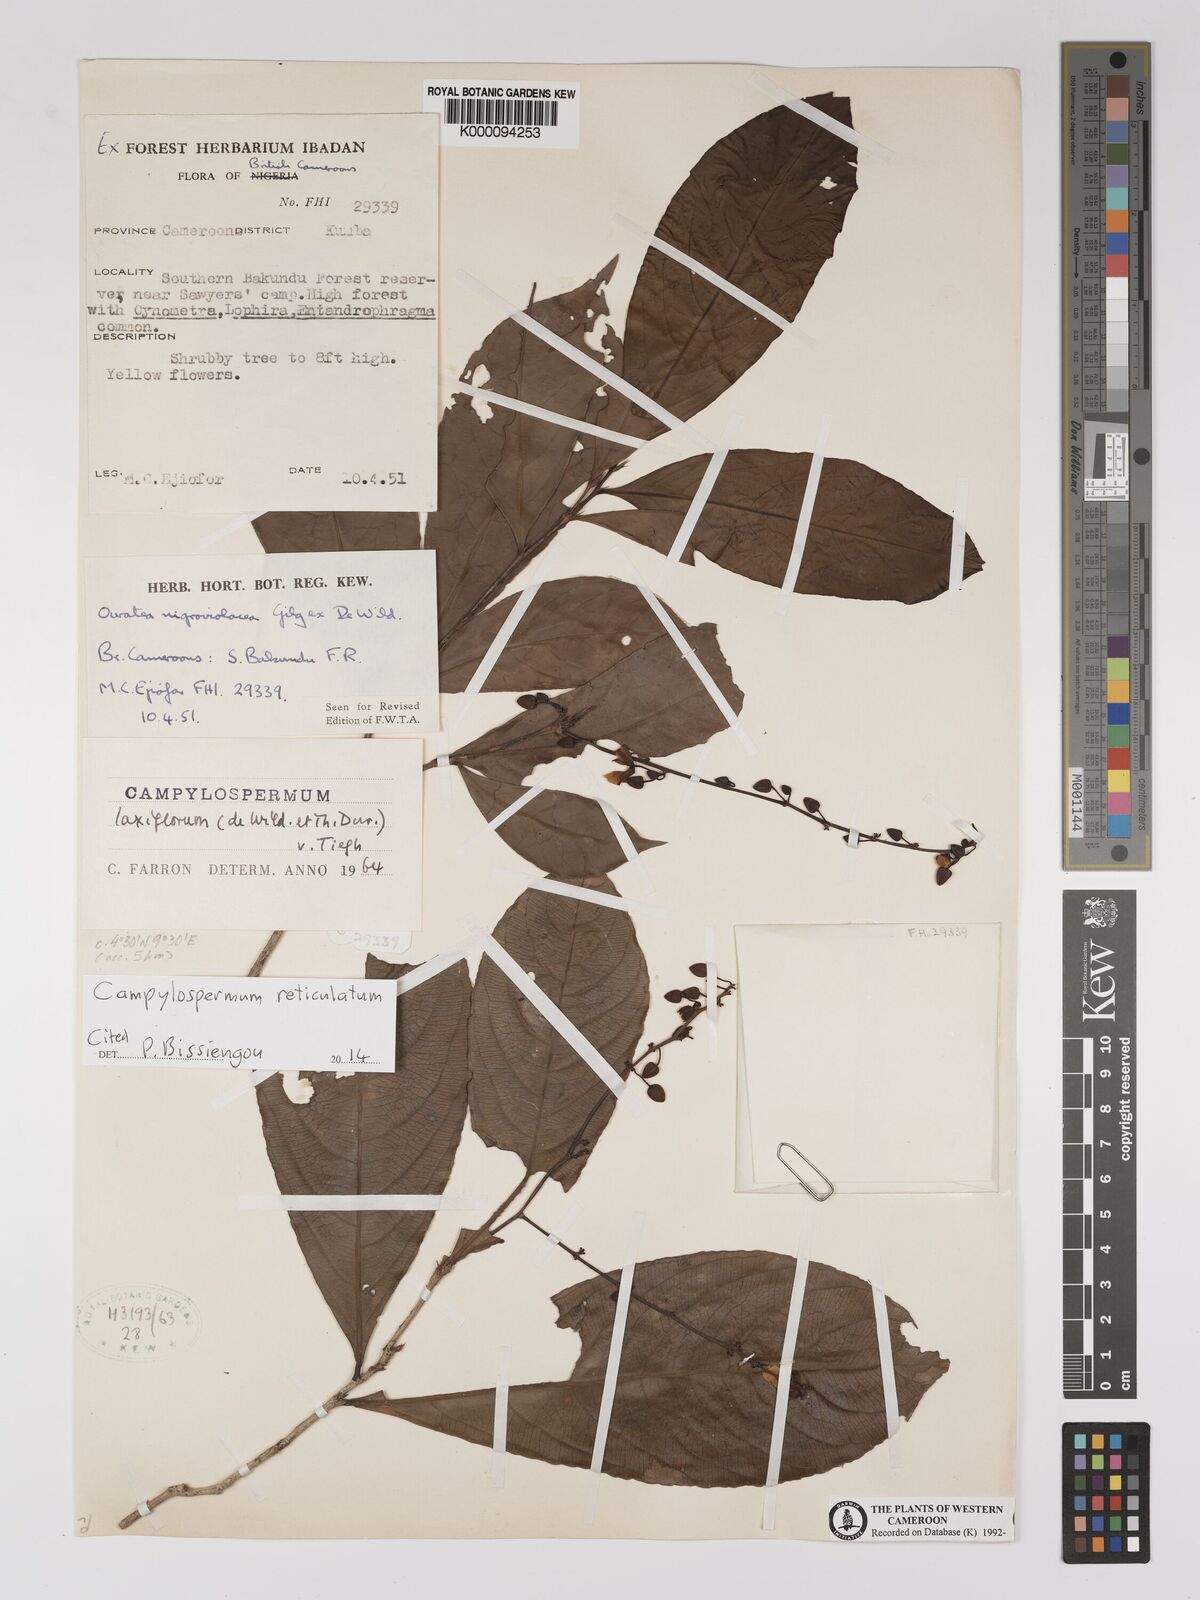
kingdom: Plantae
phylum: Tracheophyta
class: Magnoliopsida
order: Malpighiales
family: Ochnaceae
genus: Campylospermum
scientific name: Campylospermum laxiflorum
